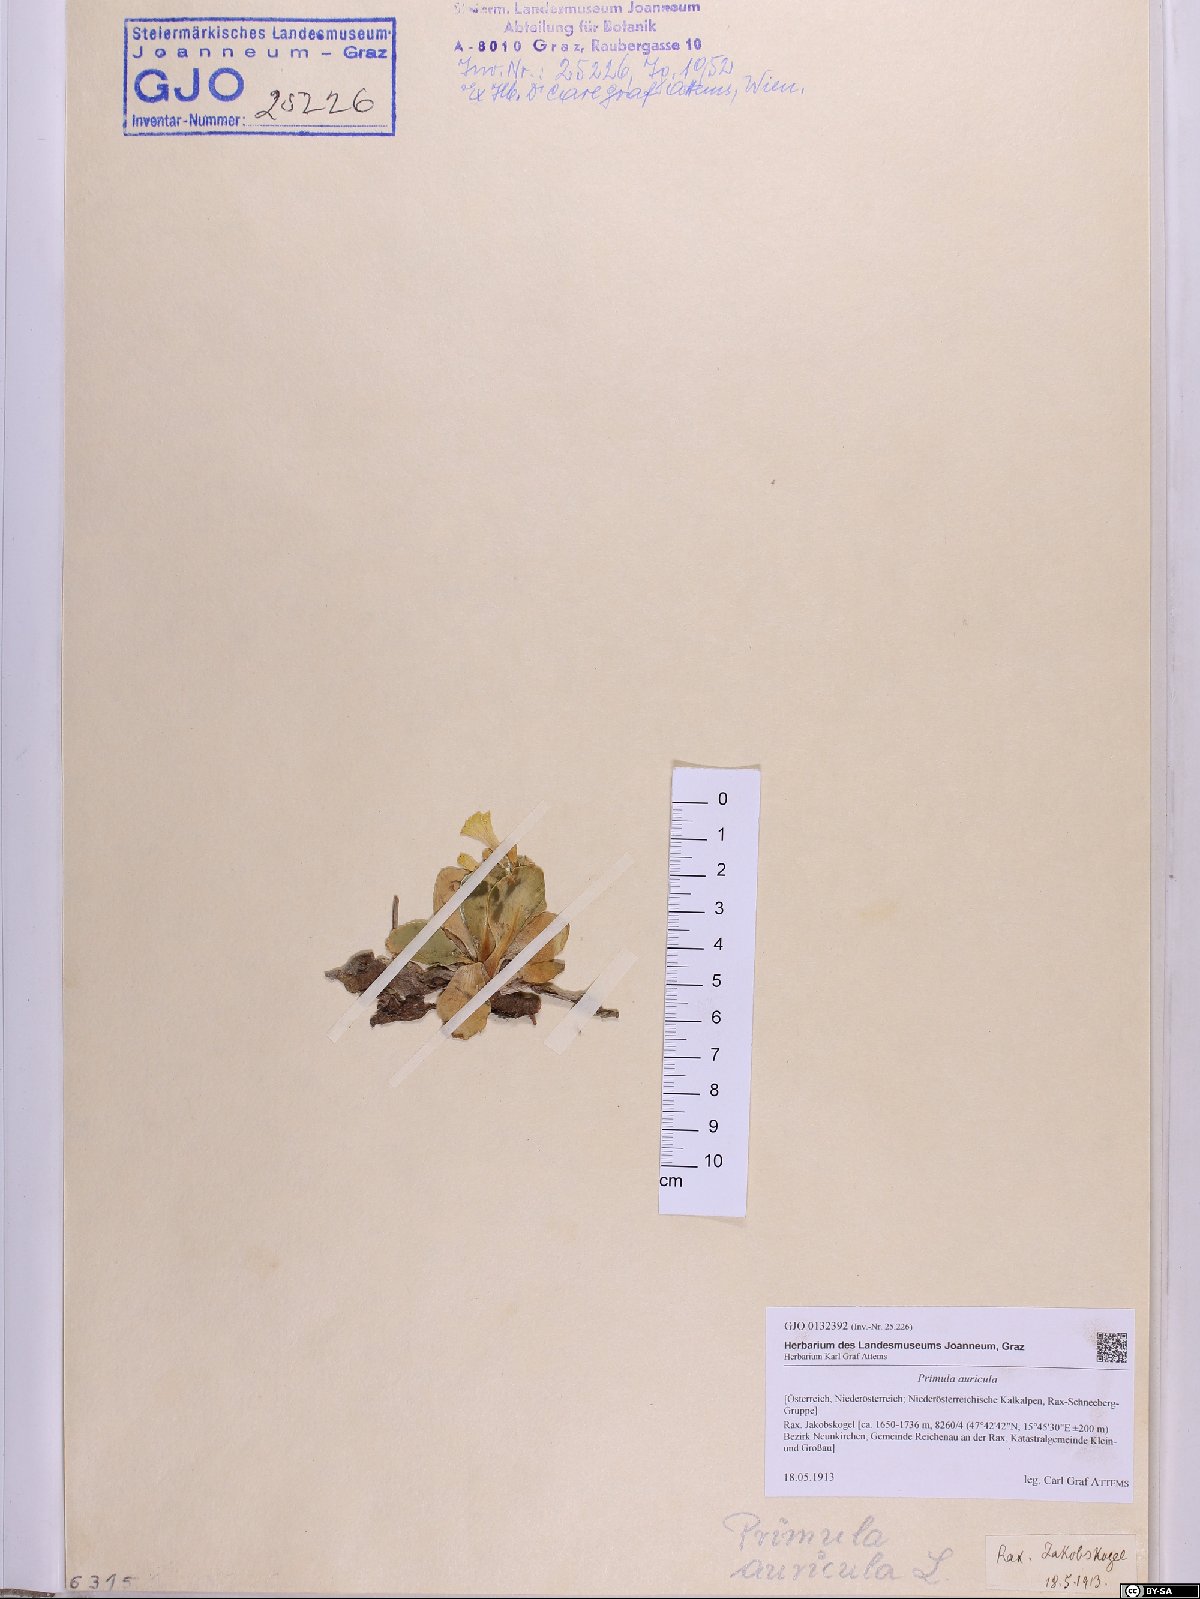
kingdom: Plantae
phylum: Tracheophyta
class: Magnoliopsida
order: Ericales
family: Primulaceae
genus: Primula
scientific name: Primula auricula
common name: Auricula
